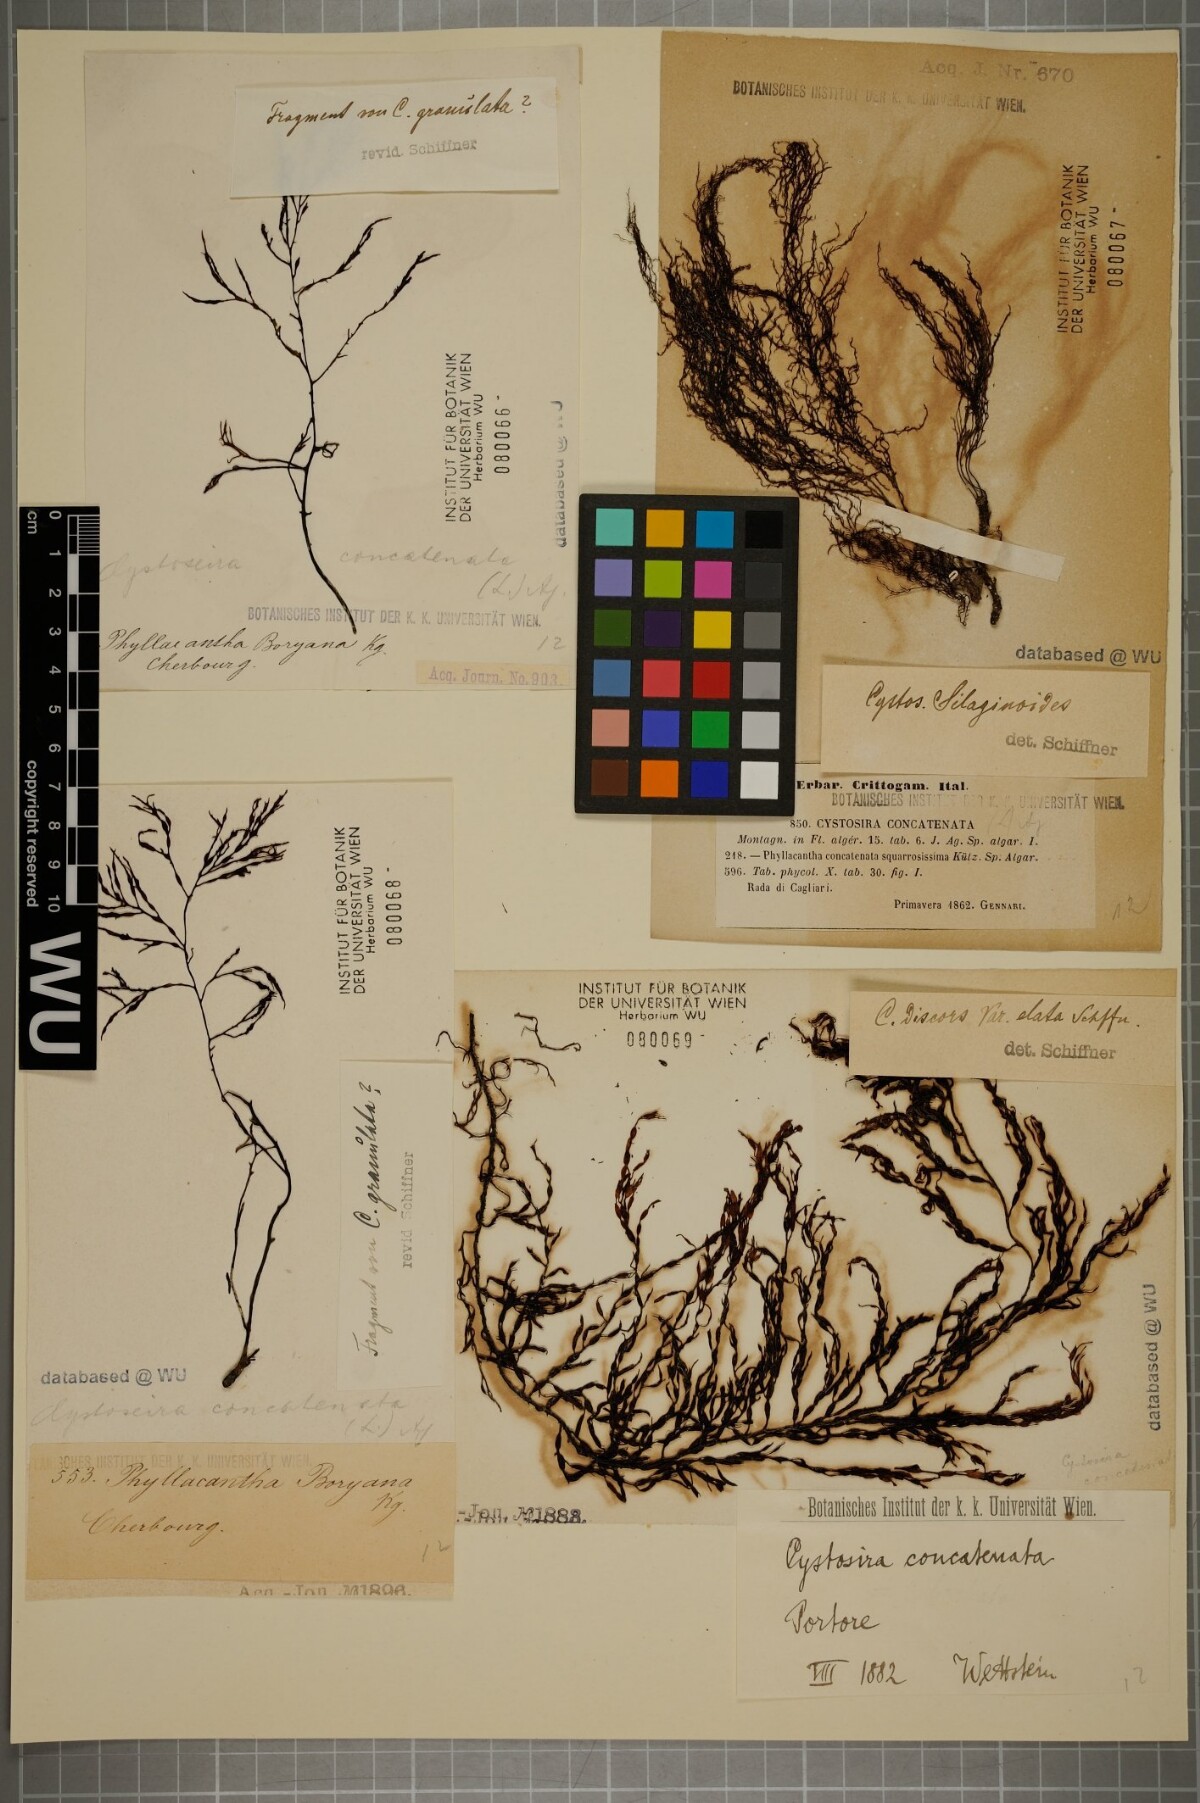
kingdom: Chromista
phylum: Ochrophyta
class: Phaeophyceae
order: Fucales
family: Sargassaceae
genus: Cystoseira
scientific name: Cystoseira foeniculacea
